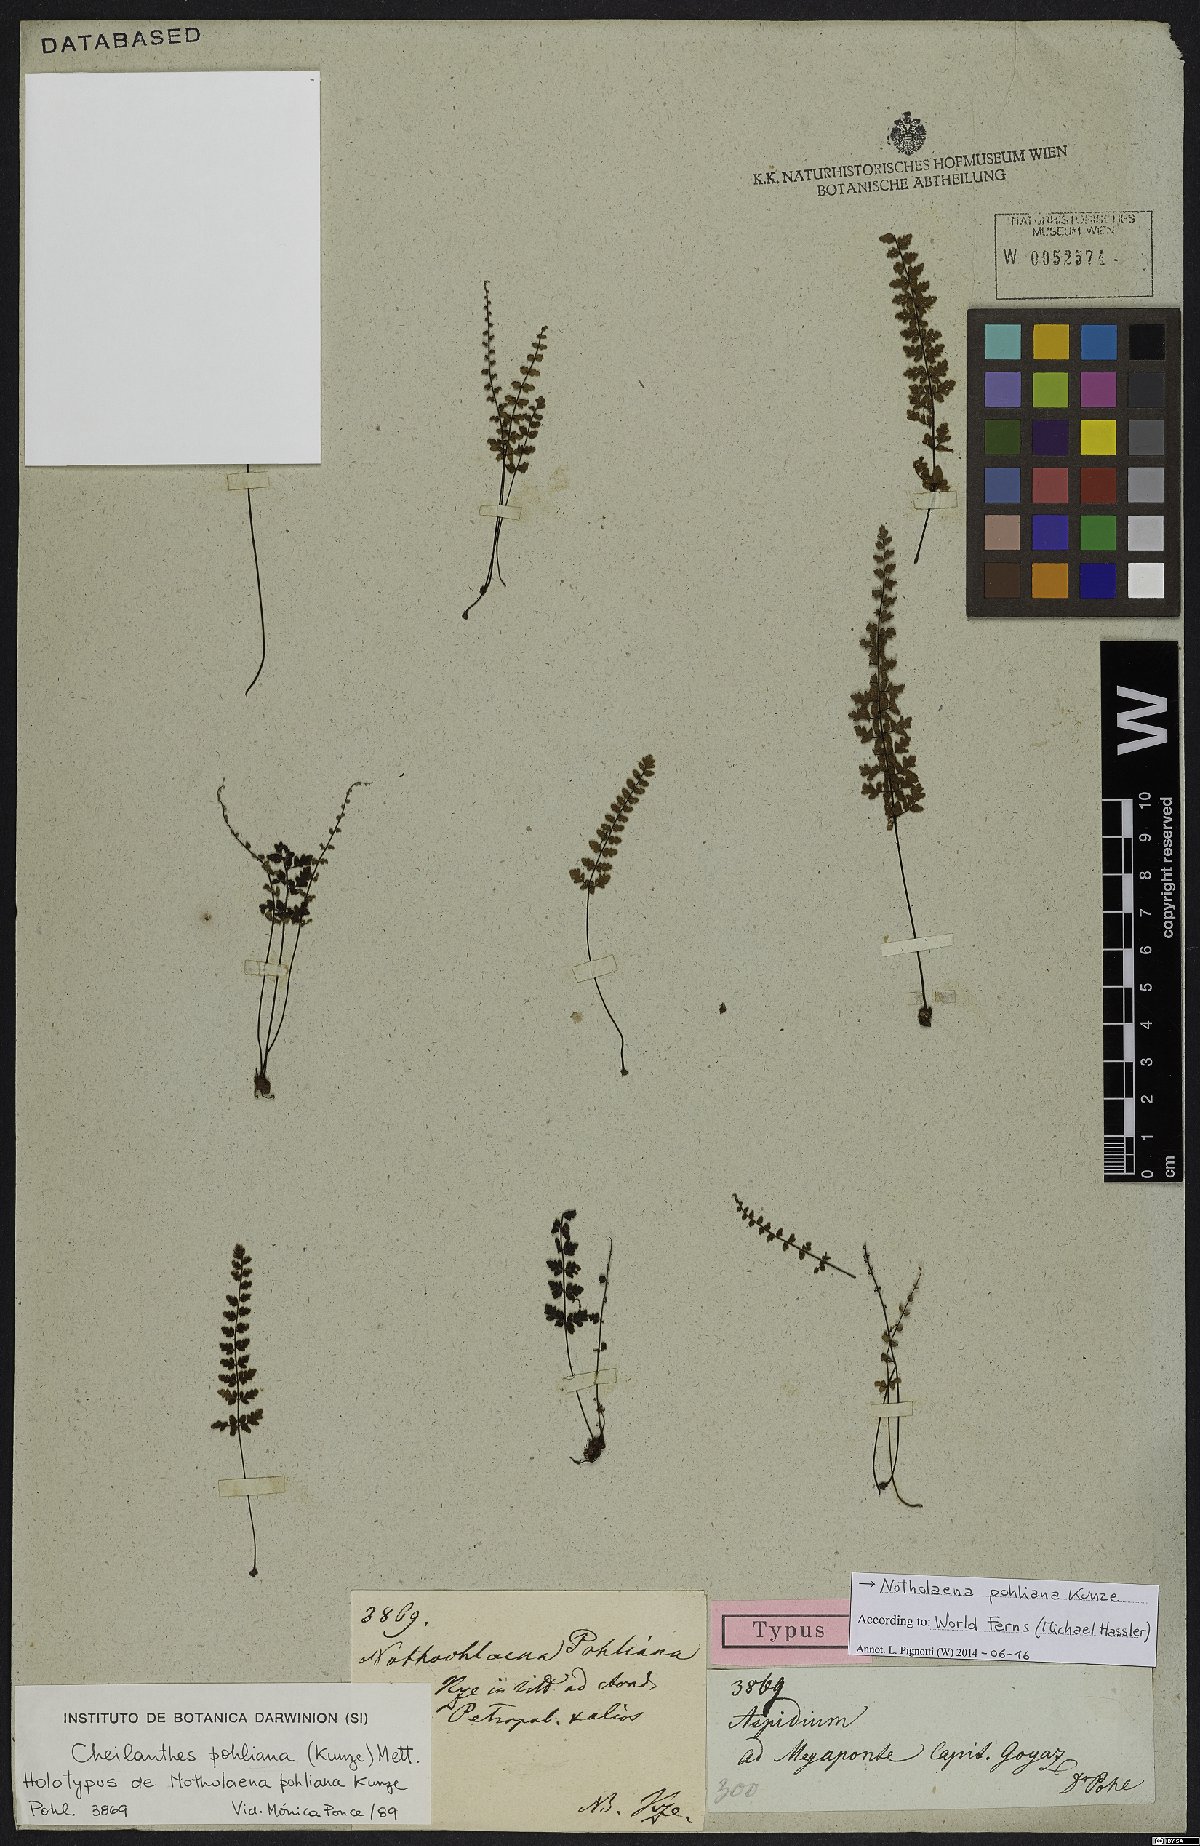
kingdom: Plantae
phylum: Tracheophyta
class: Polypodiopsida
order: Polypodiales
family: Pteridaceae
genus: Cheilanthes
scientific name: Cheilanthes pohliana
